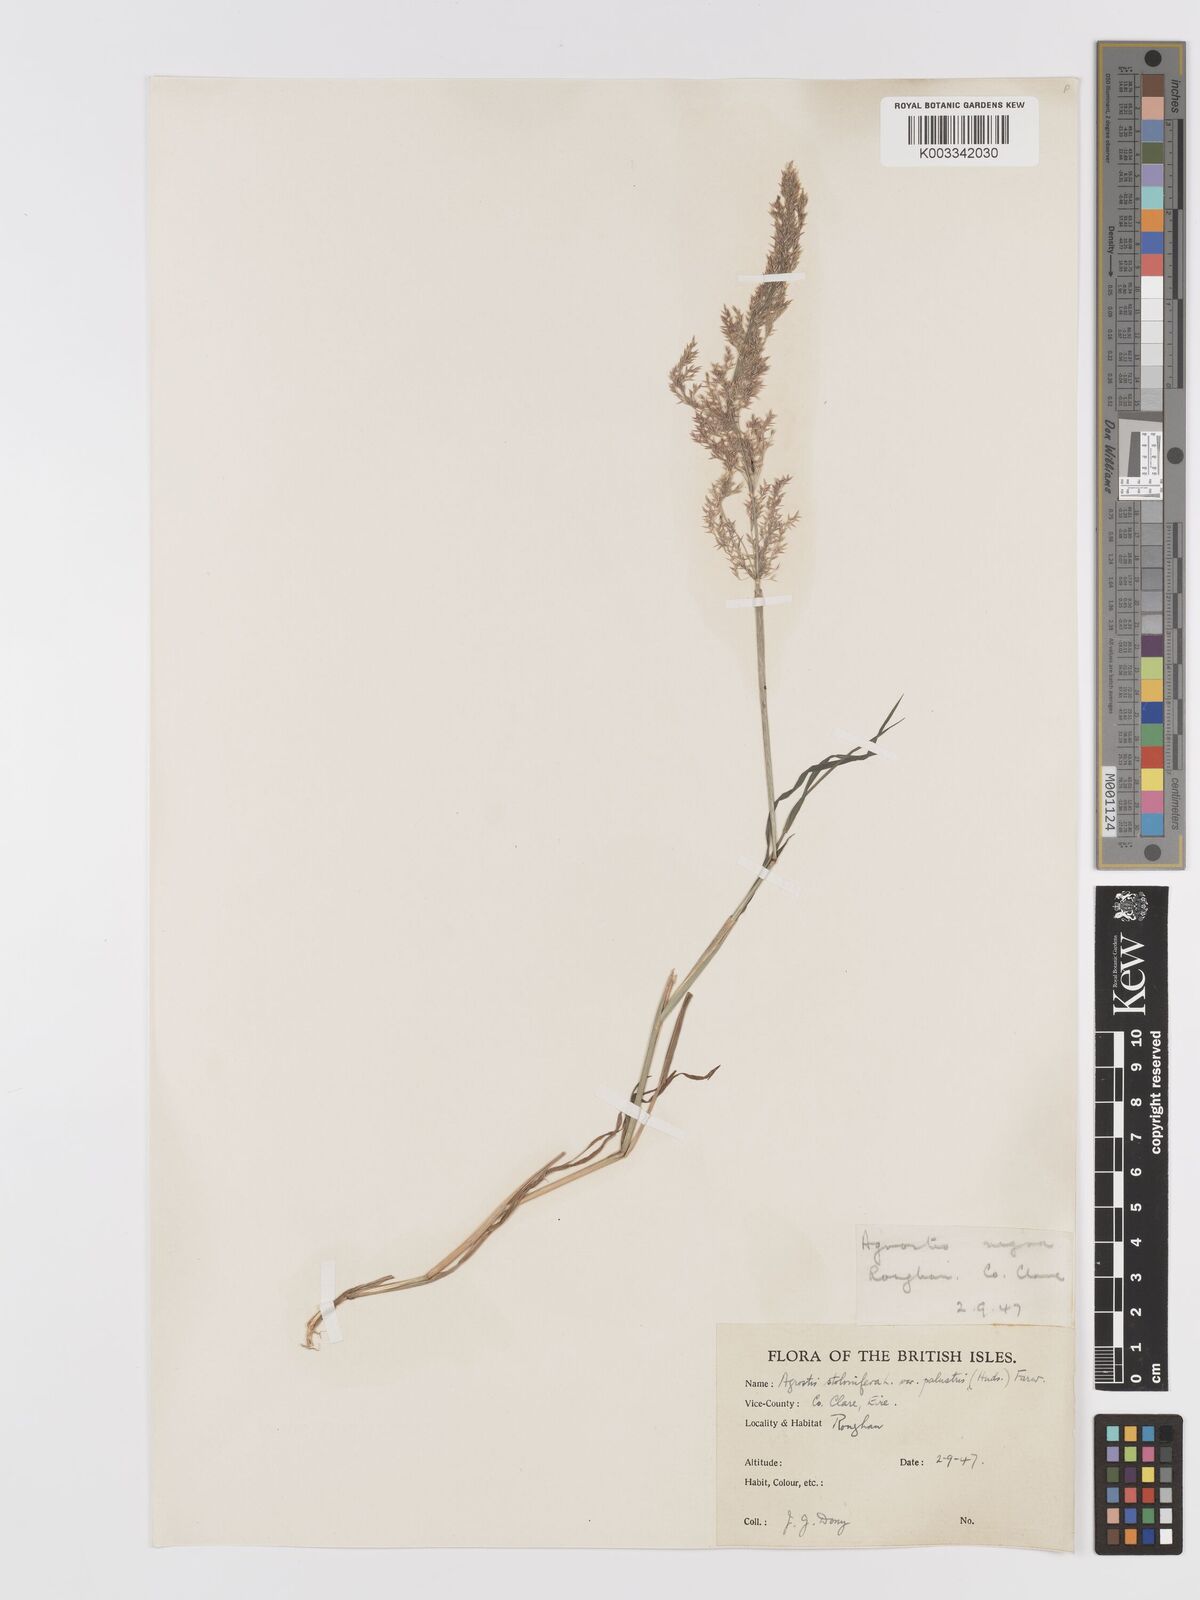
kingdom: Plantae
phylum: Tracheophyta
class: Liliopsida
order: Poales
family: Poaceae
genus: Agrostis
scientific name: Agrostis stolonifera
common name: Creeping bentgrass
